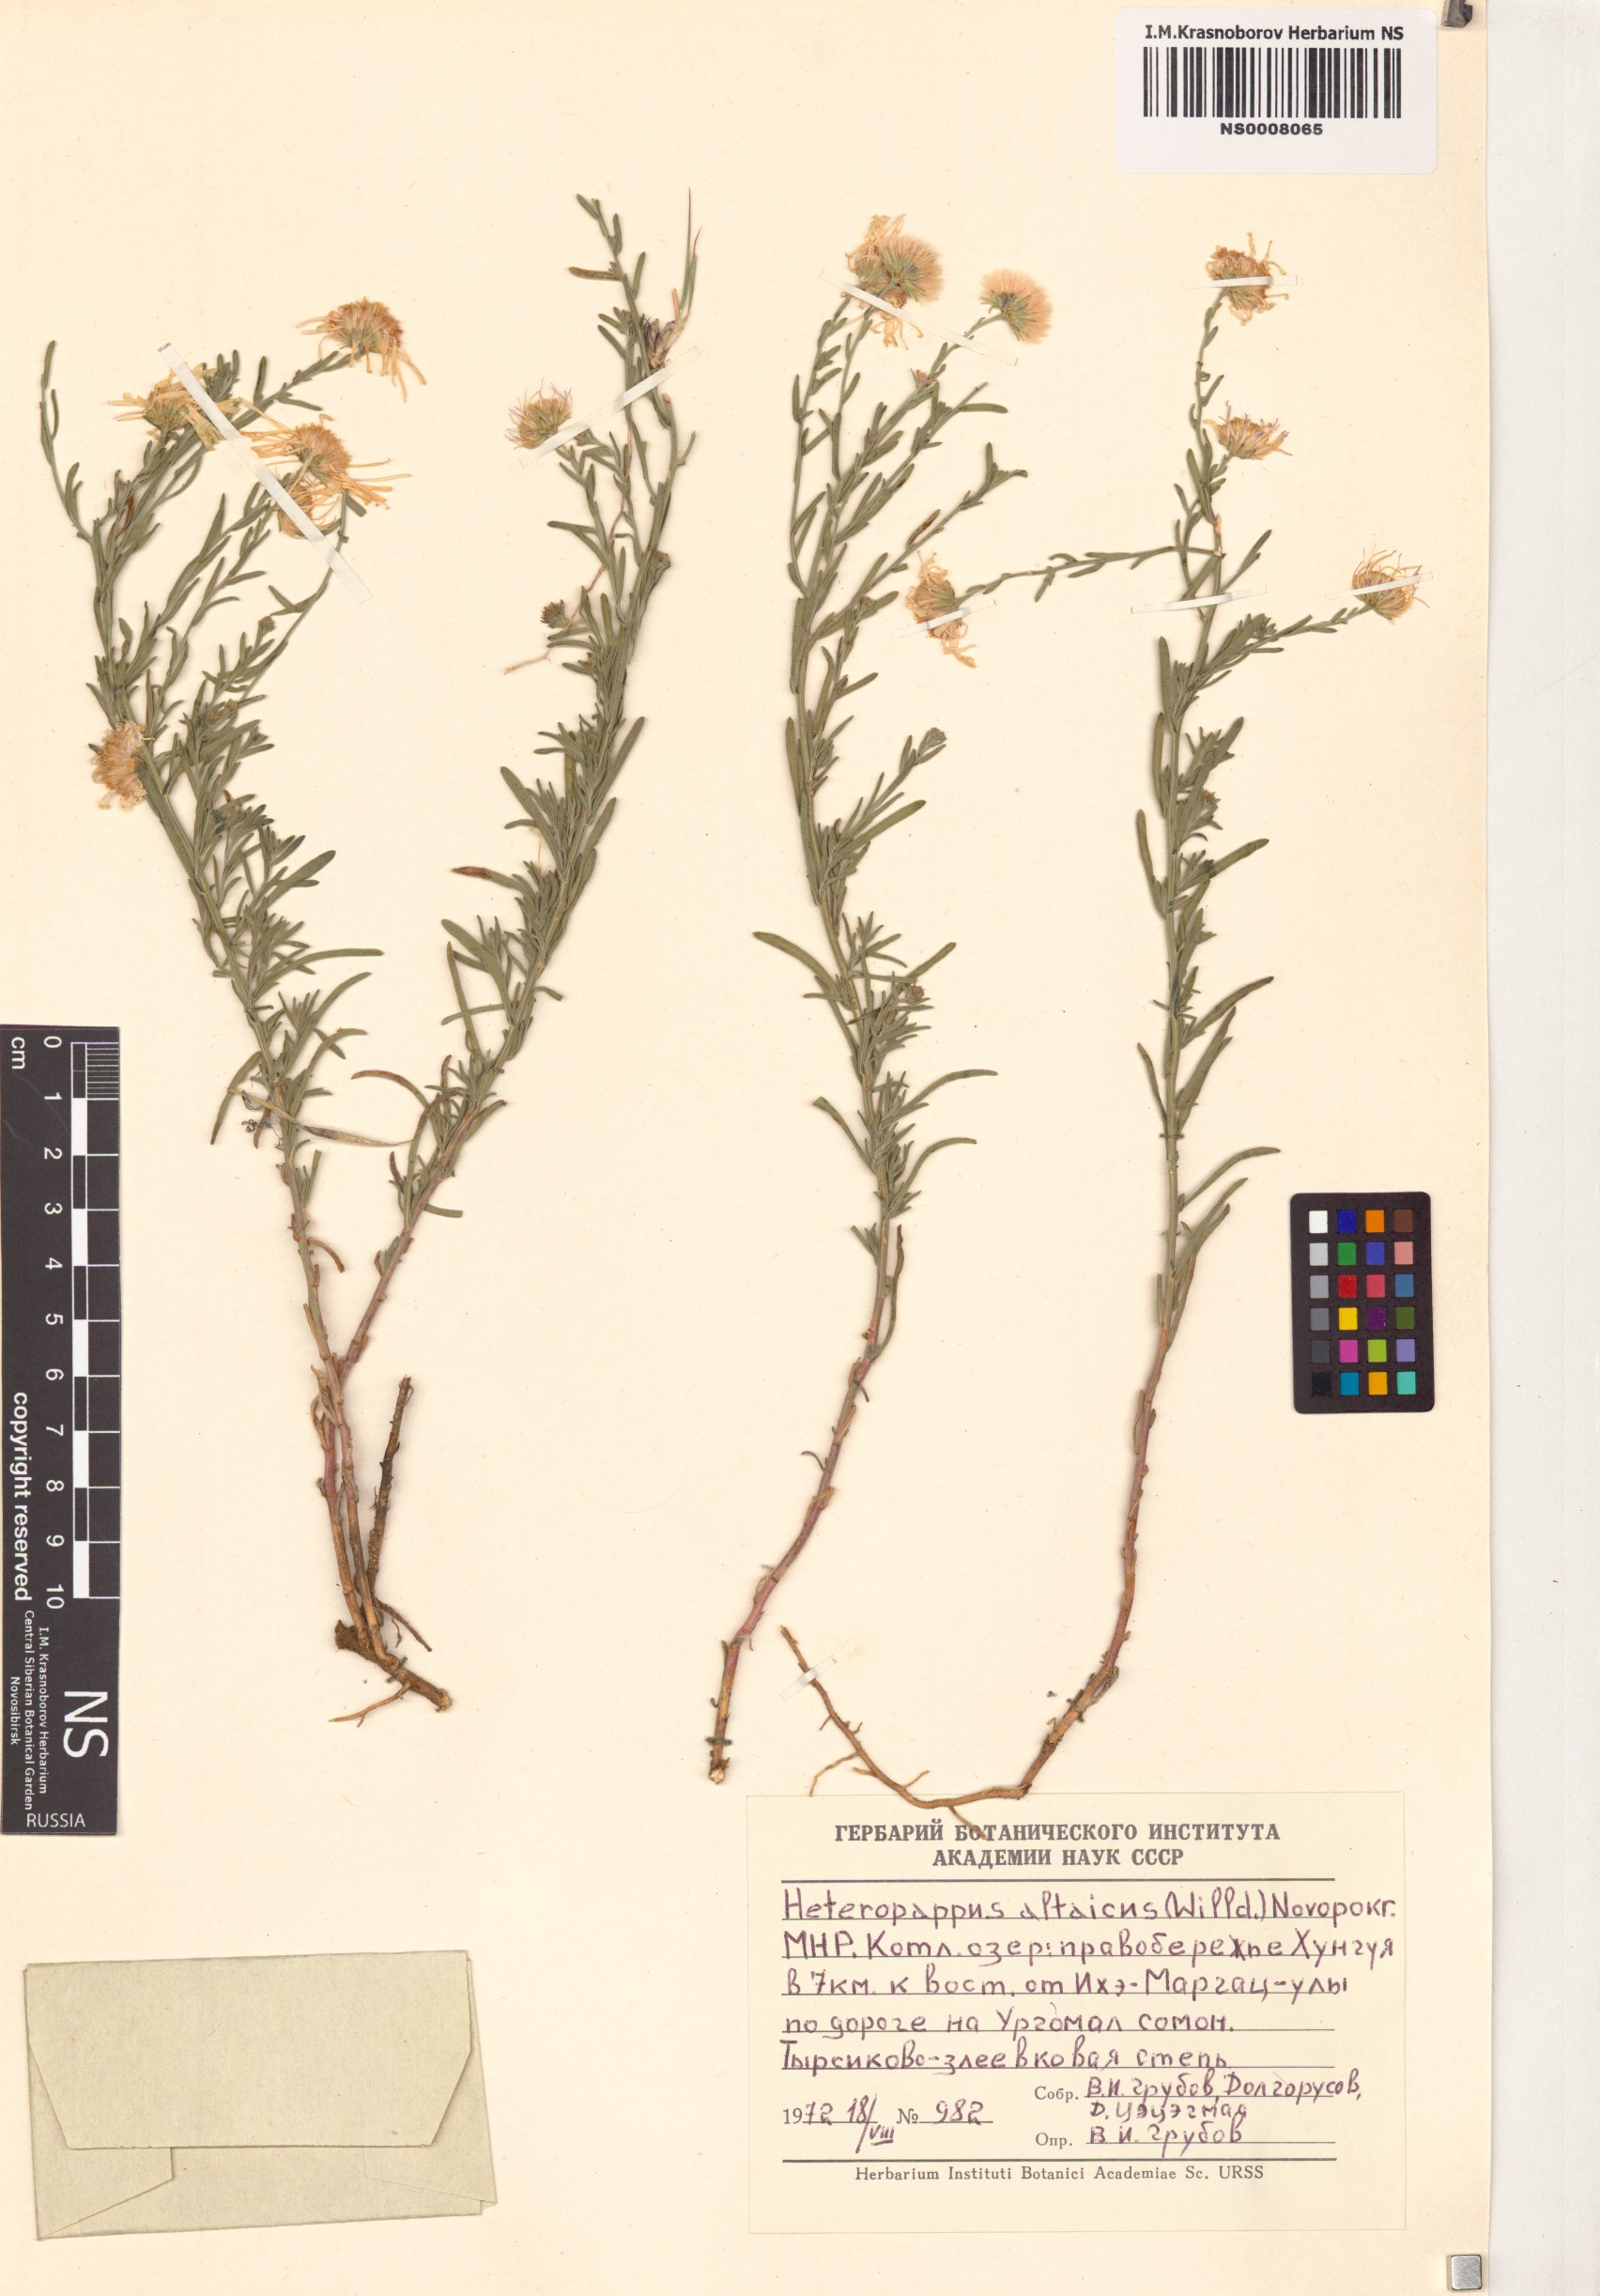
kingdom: Plantae
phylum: Tracheophyta
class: Magnoliopsida
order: Asterales
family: Asteraceae
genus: Heteropappus
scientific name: Heteropappus altaicus
